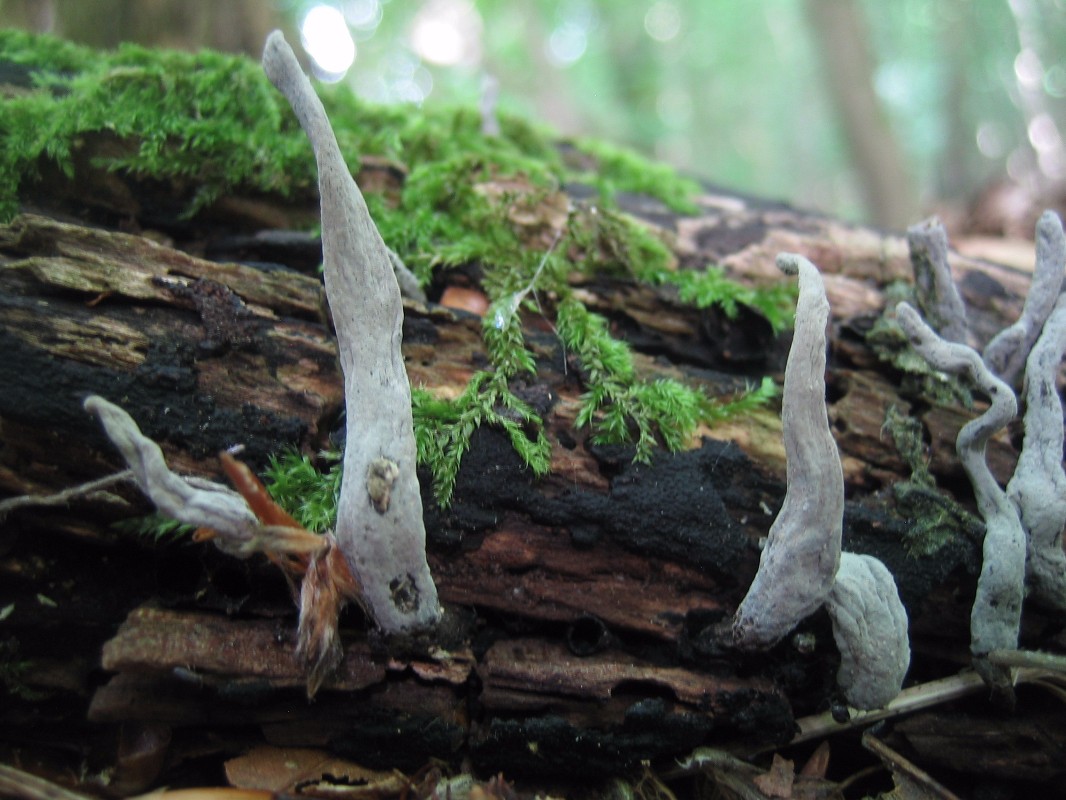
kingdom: Fungi
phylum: Ascomycota
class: Sordariomycetes
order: Xylariales
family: Xylariaceae
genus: Xylaria
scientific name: Xylaria hypoxylon
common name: grenet stødsvamp
